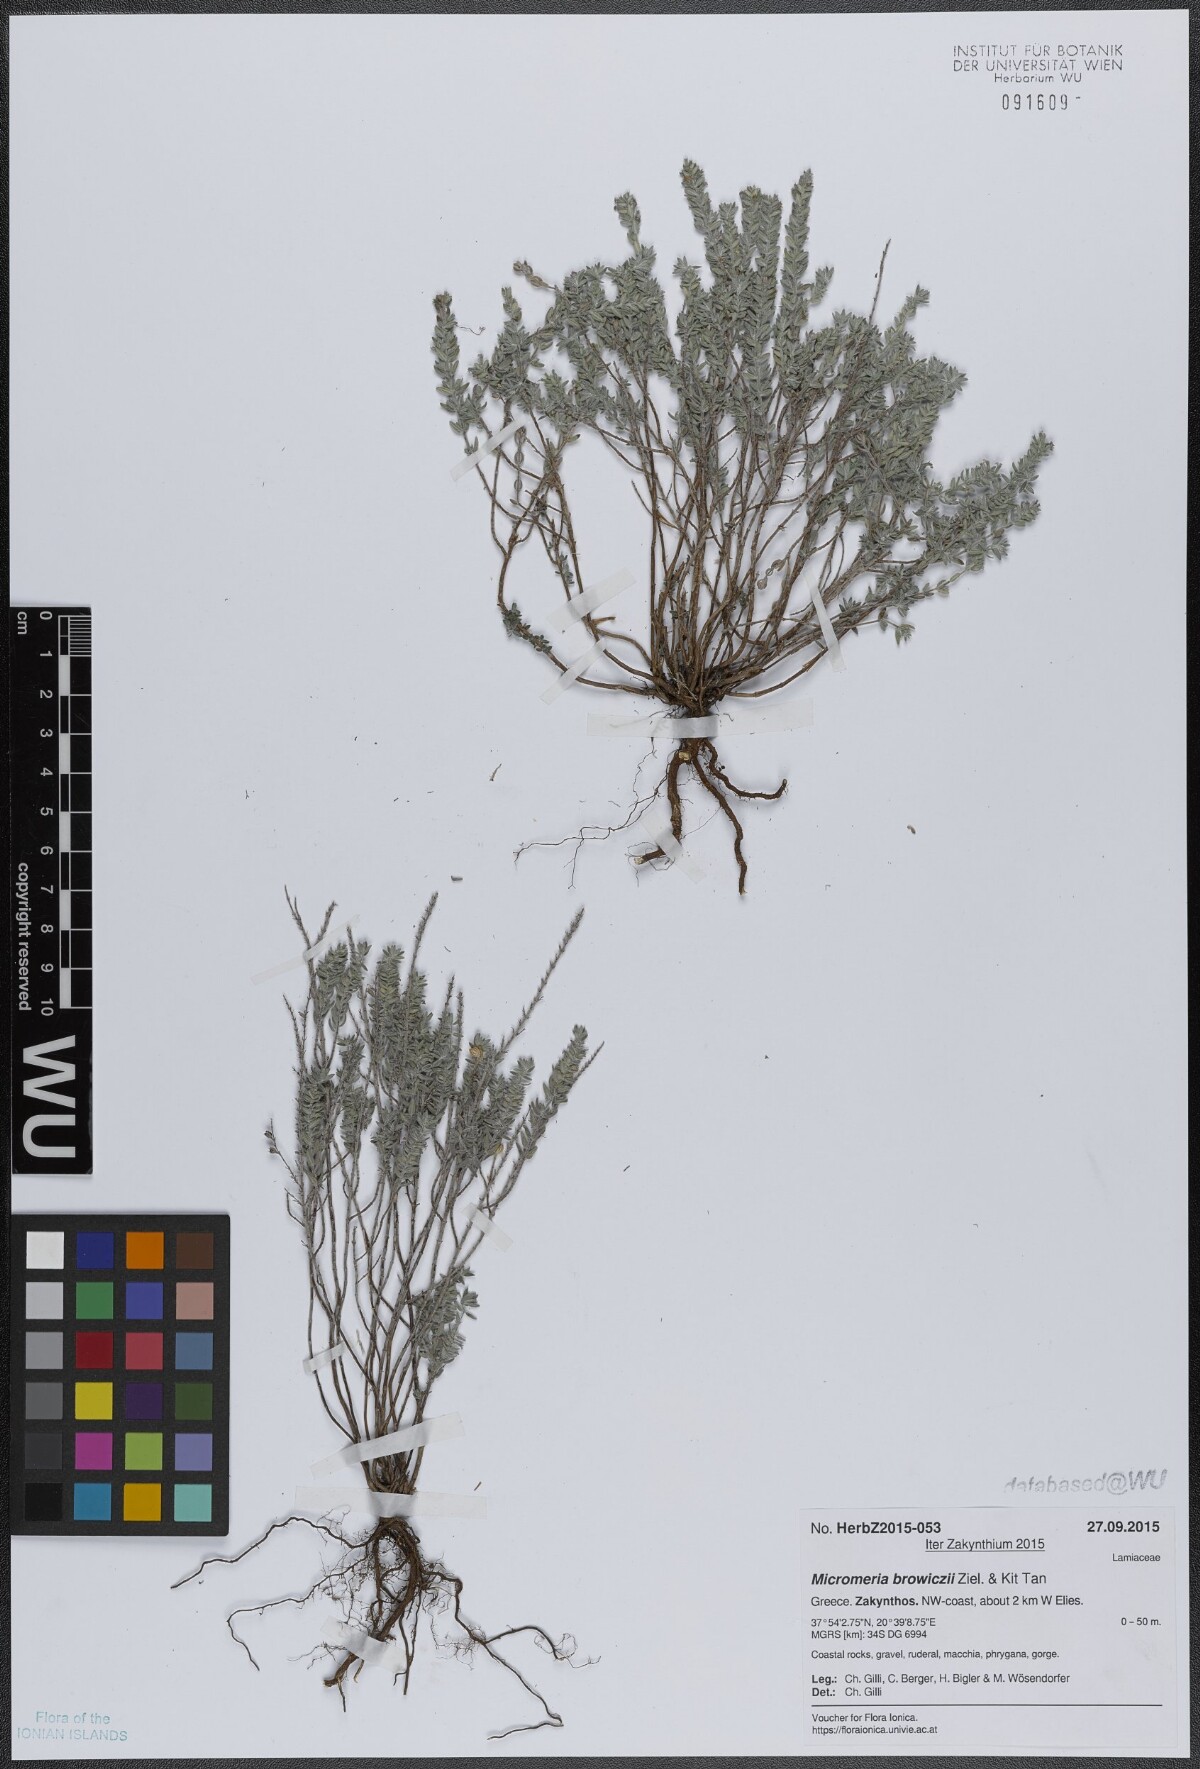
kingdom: Plantae
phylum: Tracheophyta
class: Magnoliopsida
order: Lamiales
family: Lamiaceae
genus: Micromeria
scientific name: Micromeria browiczii
